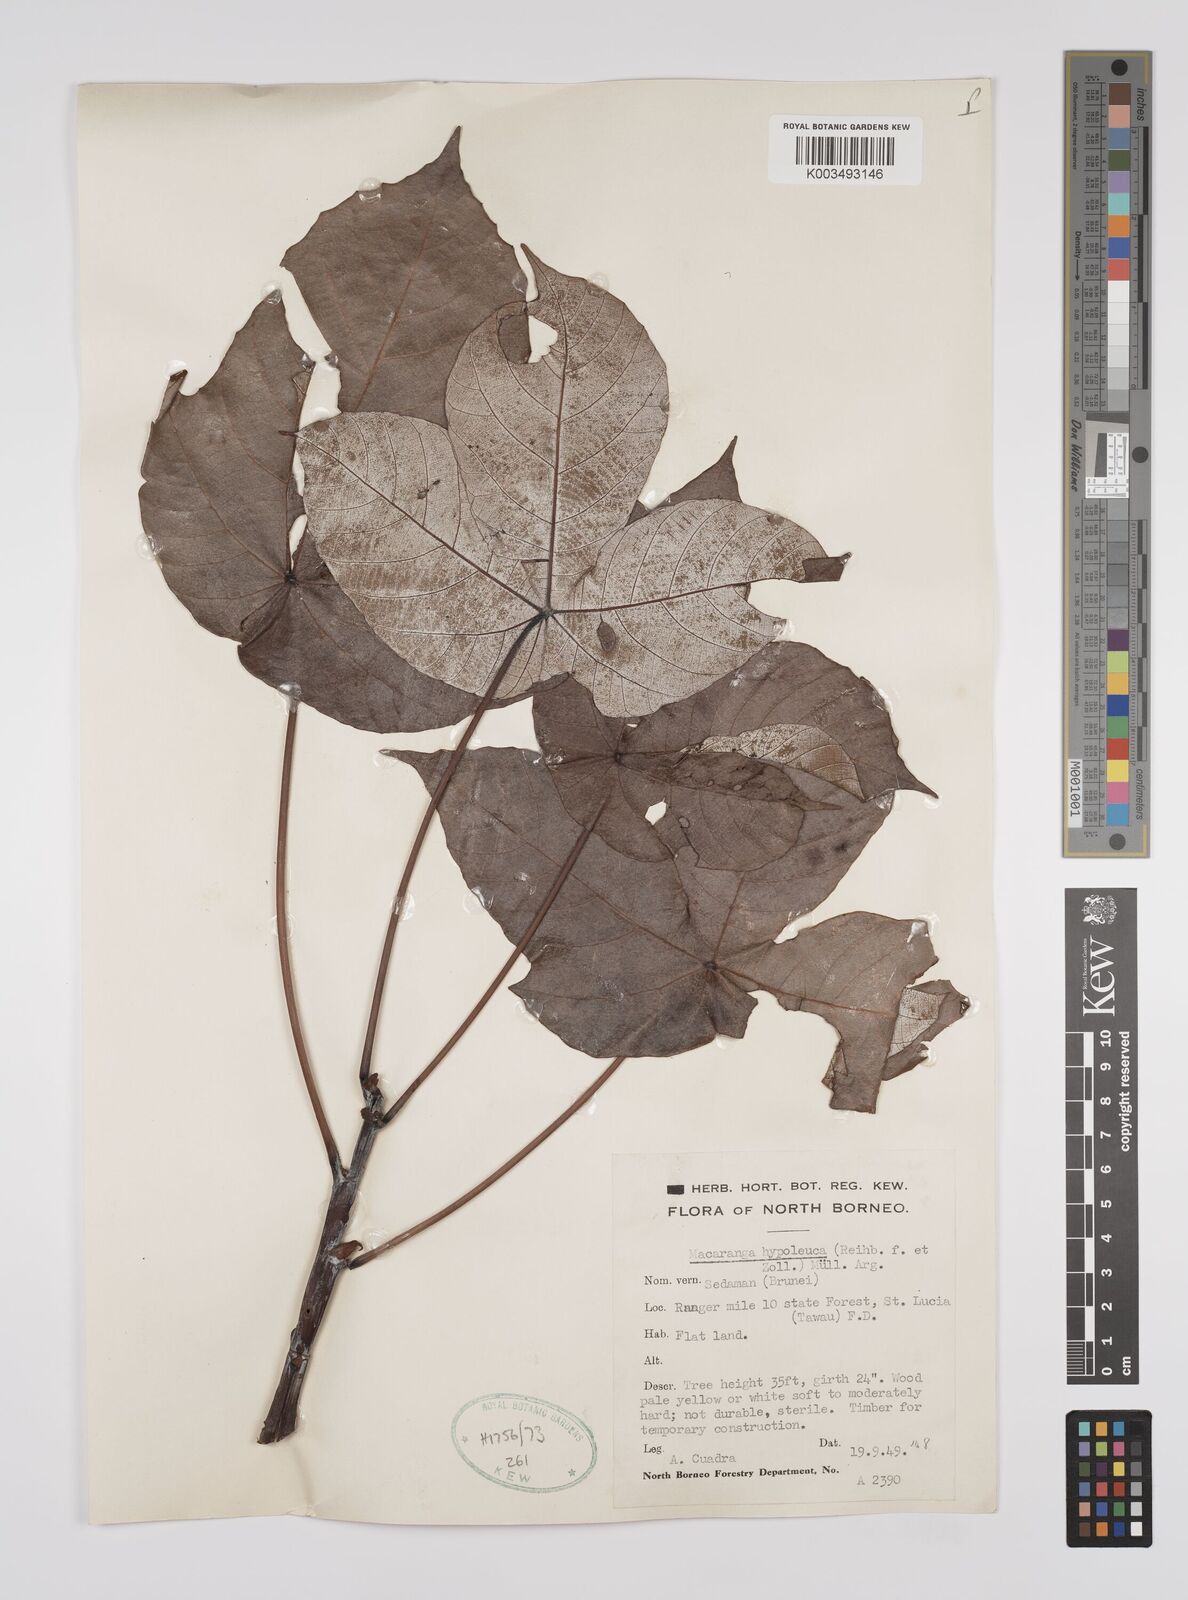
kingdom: Plantae
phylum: Tracheophyta
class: Magnoliopsida
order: Malpighiales
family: Euphorbiaceae
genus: Macaranga
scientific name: Macaranga hypoleuca
